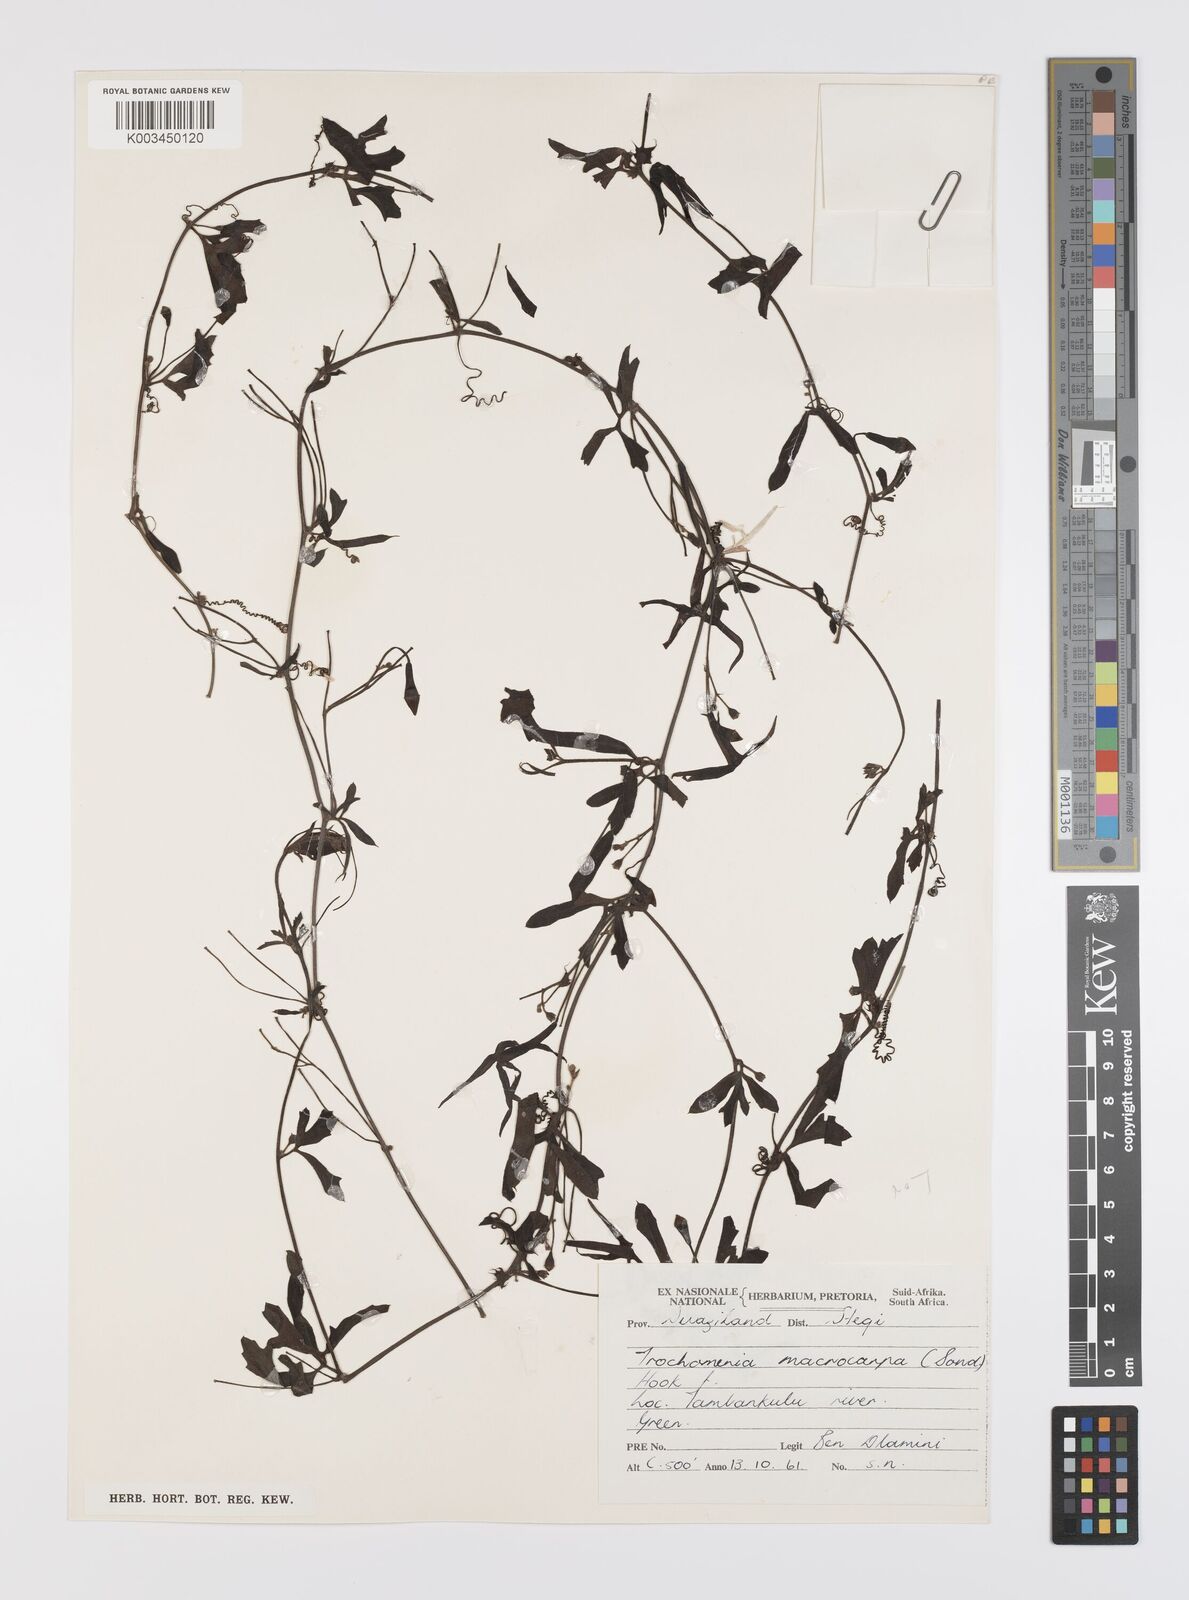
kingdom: Plantae
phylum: Tracheophyta
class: Magnoliopsida
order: Cucurbitales
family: Cucurbitaceae
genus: Trochomeria
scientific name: Trochomeria hookeri
